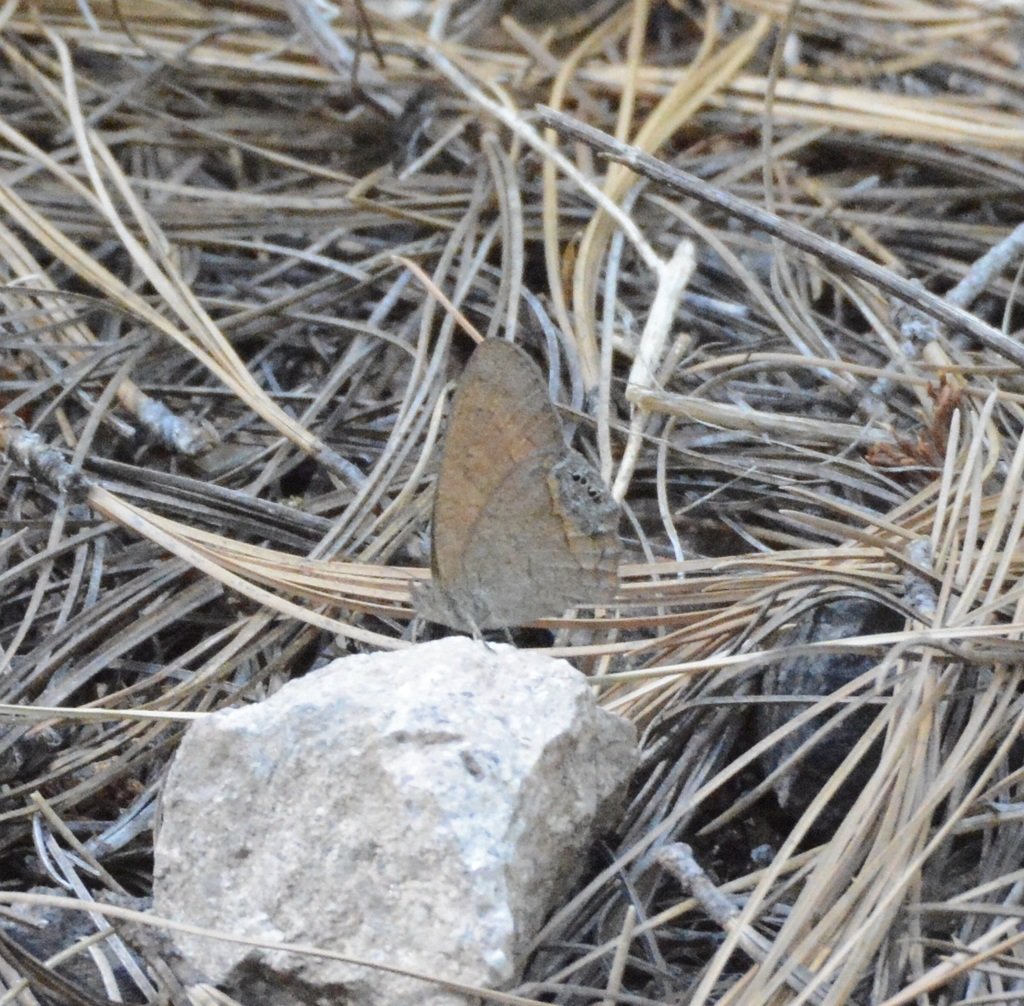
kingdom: Animalia
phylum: Arthropoda
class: Insecta
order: Lepidoptera
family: Nymphalidae
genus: Euptychia
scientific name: Euptychia Cyllopsis pertepida
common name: Canyonland Satyr
